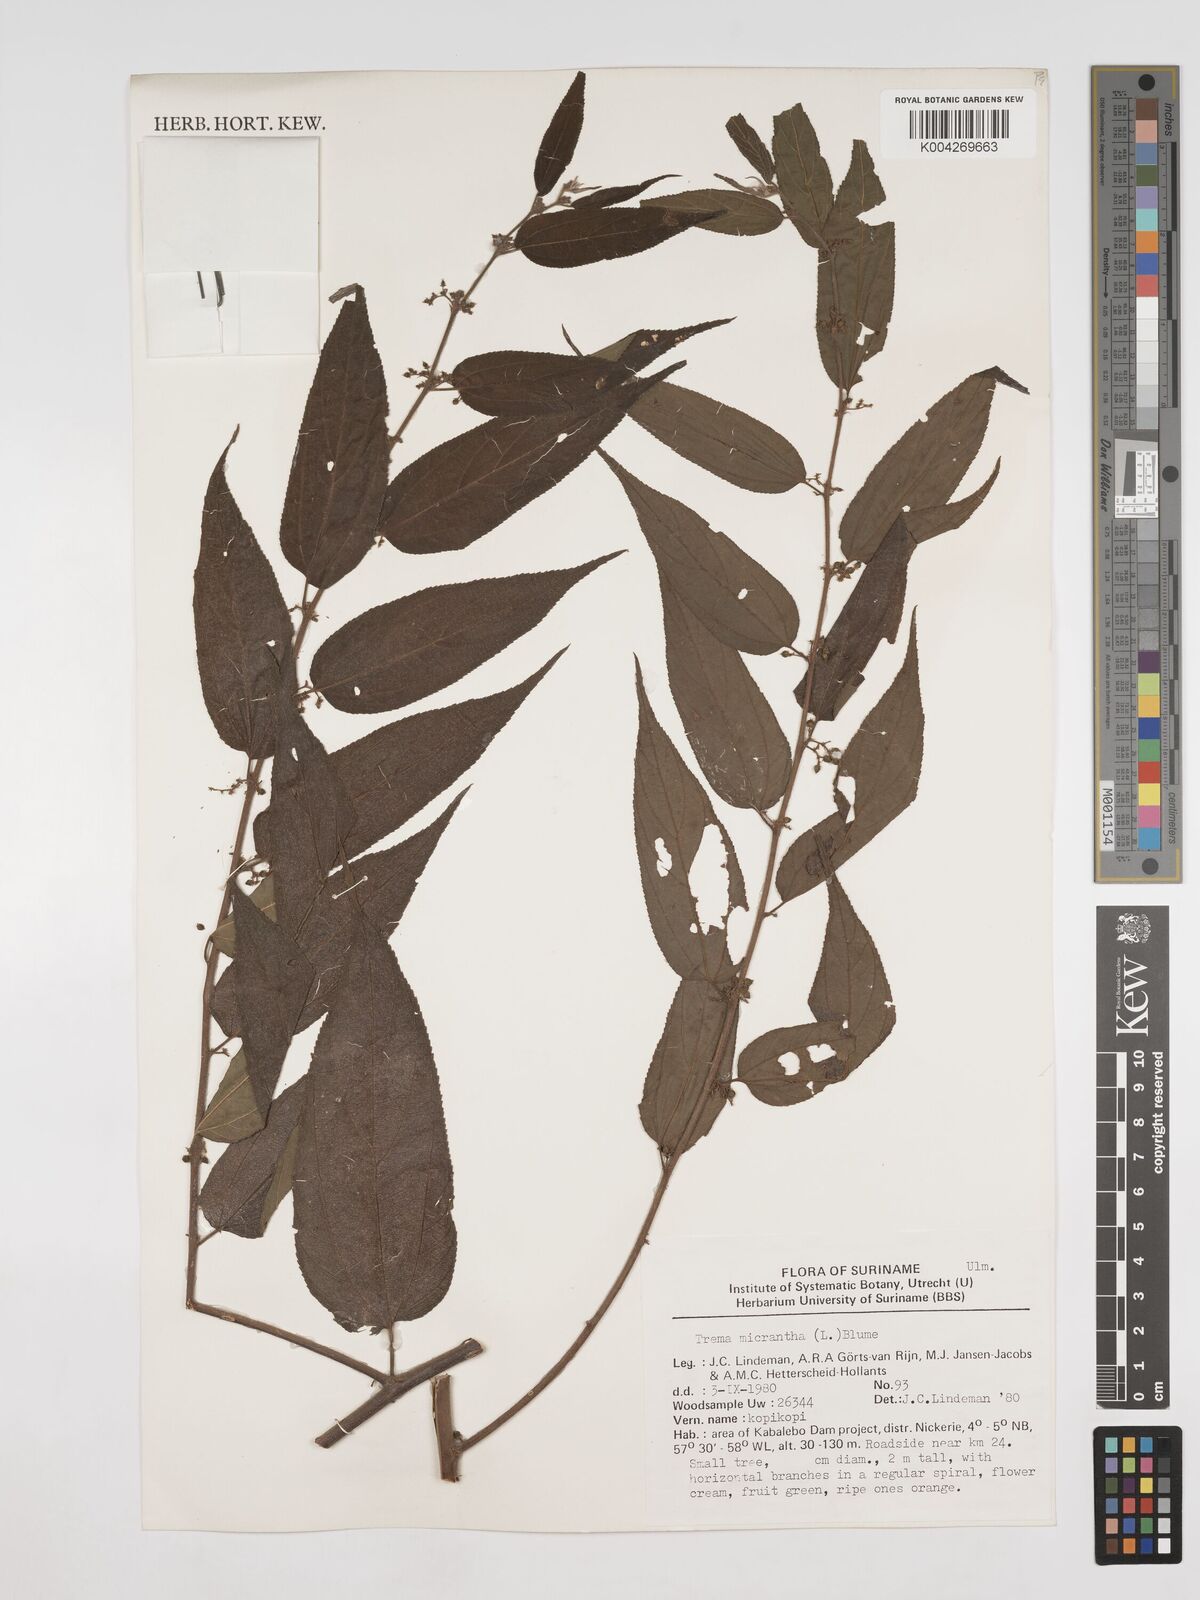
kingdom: Plantae
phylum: Tracheophyta
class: Magnoliopsida
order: Rosales
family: Cannabaceae
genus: Trema
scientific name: Trema micranthum
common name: Jamaican nettletree
